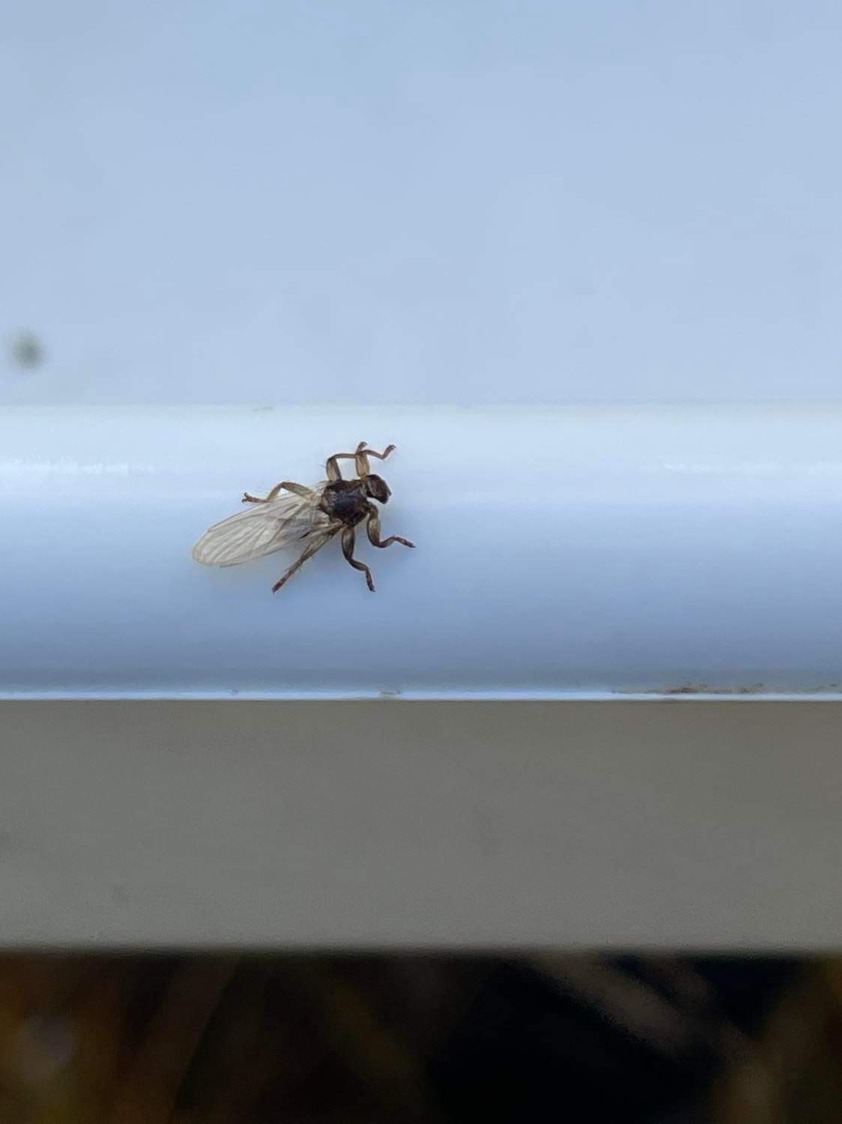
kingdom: Animalia
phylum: Arthropoda
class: Insecta
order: Diptera
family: Hippoboscidae
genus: Lipoptena
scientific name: Lipoptena cervi
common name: Hjortelus
